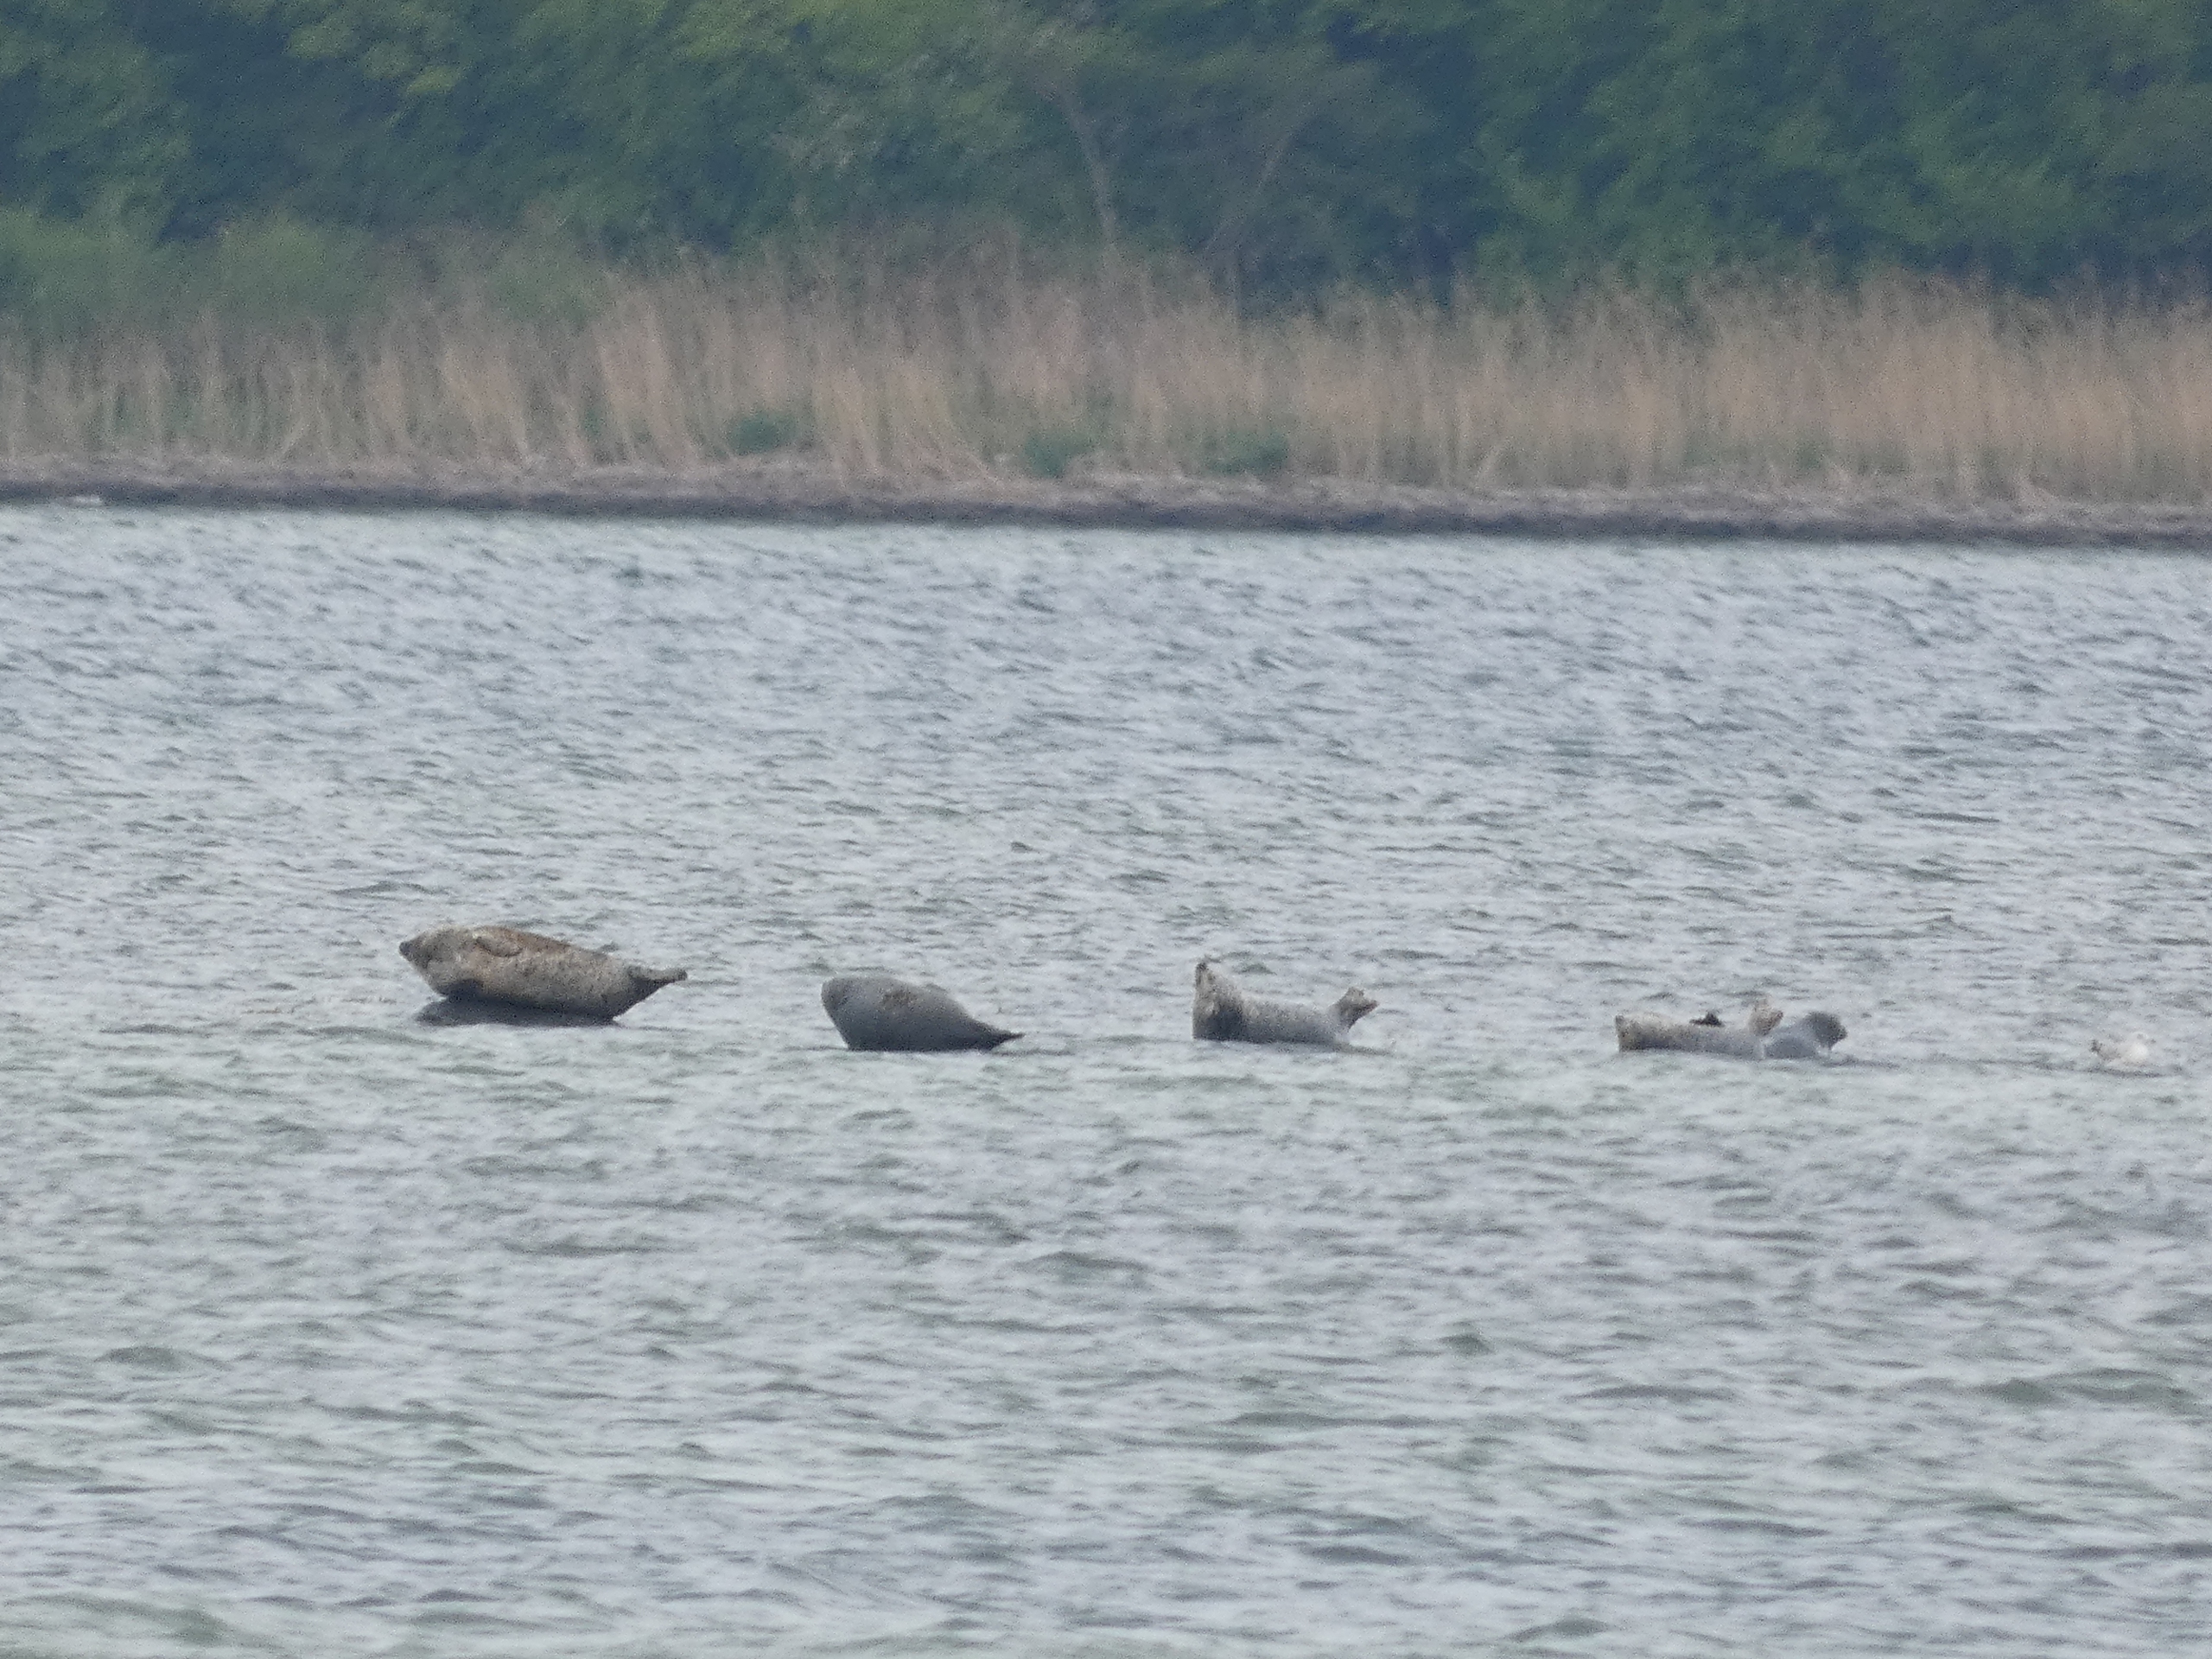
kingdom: Animalia
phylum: Chordata
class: Mammalia
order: Carnivora
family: Phocidae
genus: Phoca
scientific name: Phoca vitulina
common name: Spættet sæl
